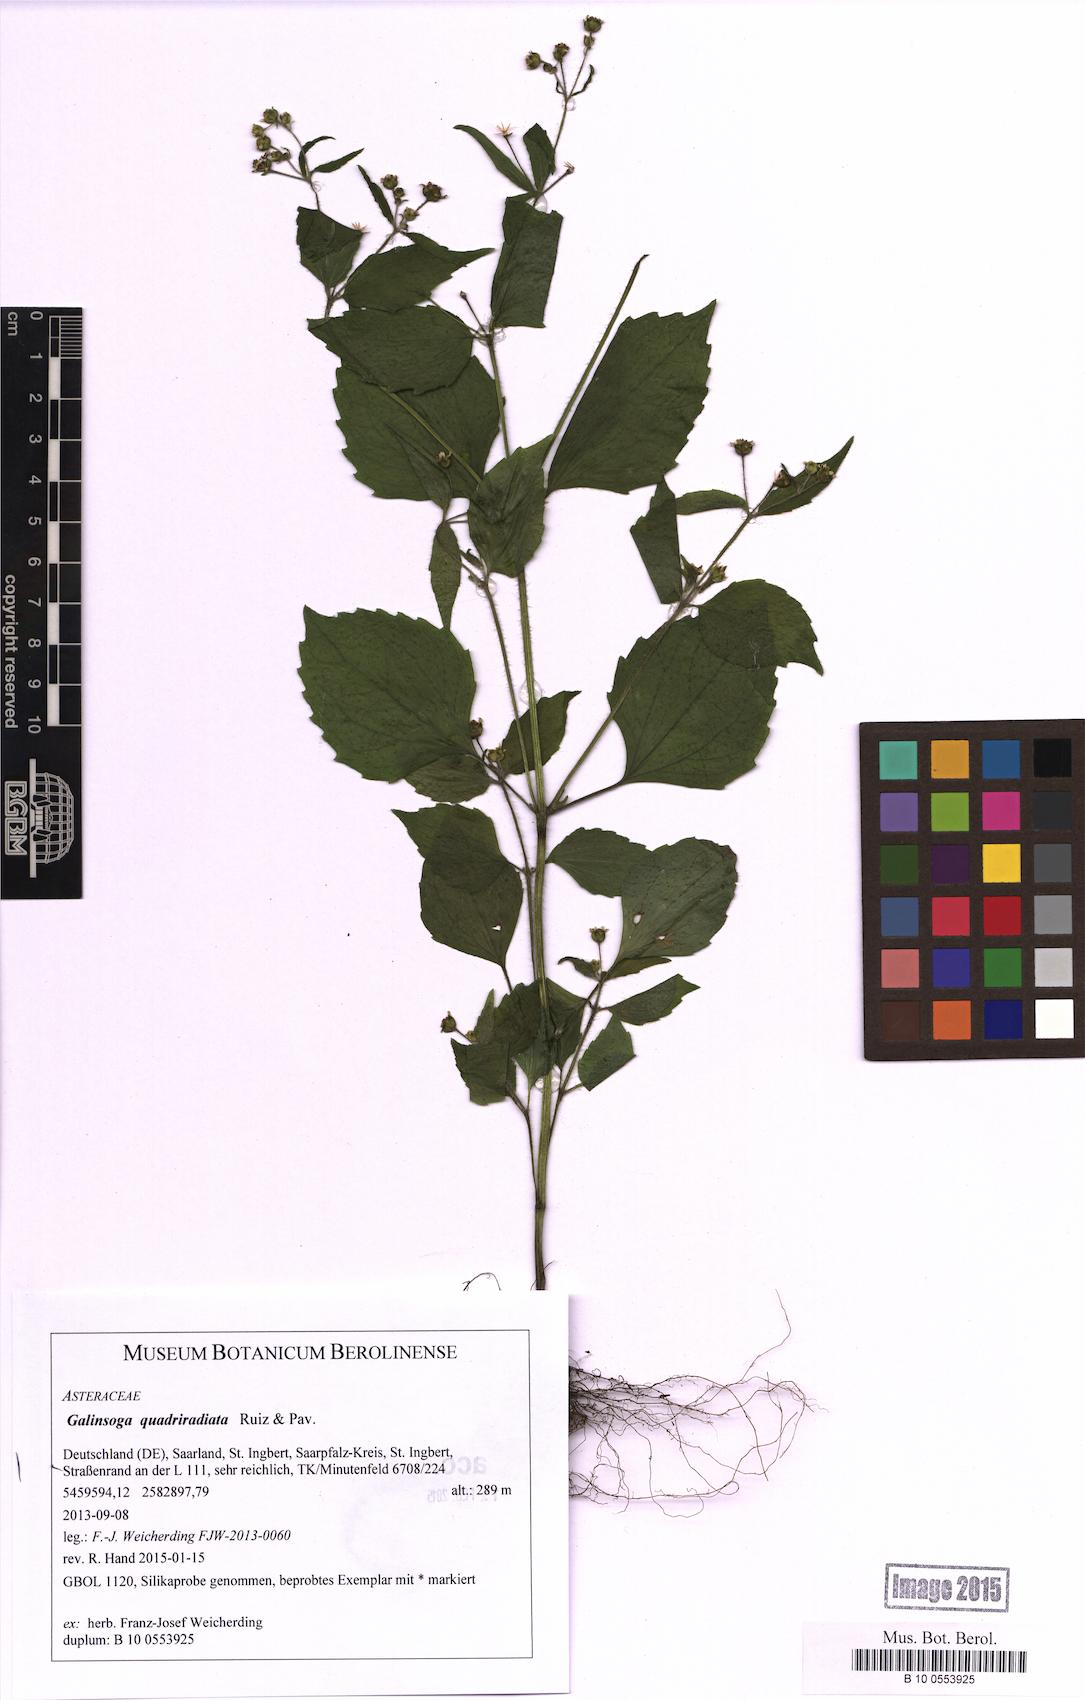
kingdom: Plantae
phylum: Tracheophyta
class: Magnoliopsida
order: Asterales
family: Asteraceae
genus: Galinsoga
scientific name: Galinsoga quadriradiata
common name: Shaggy soldier
